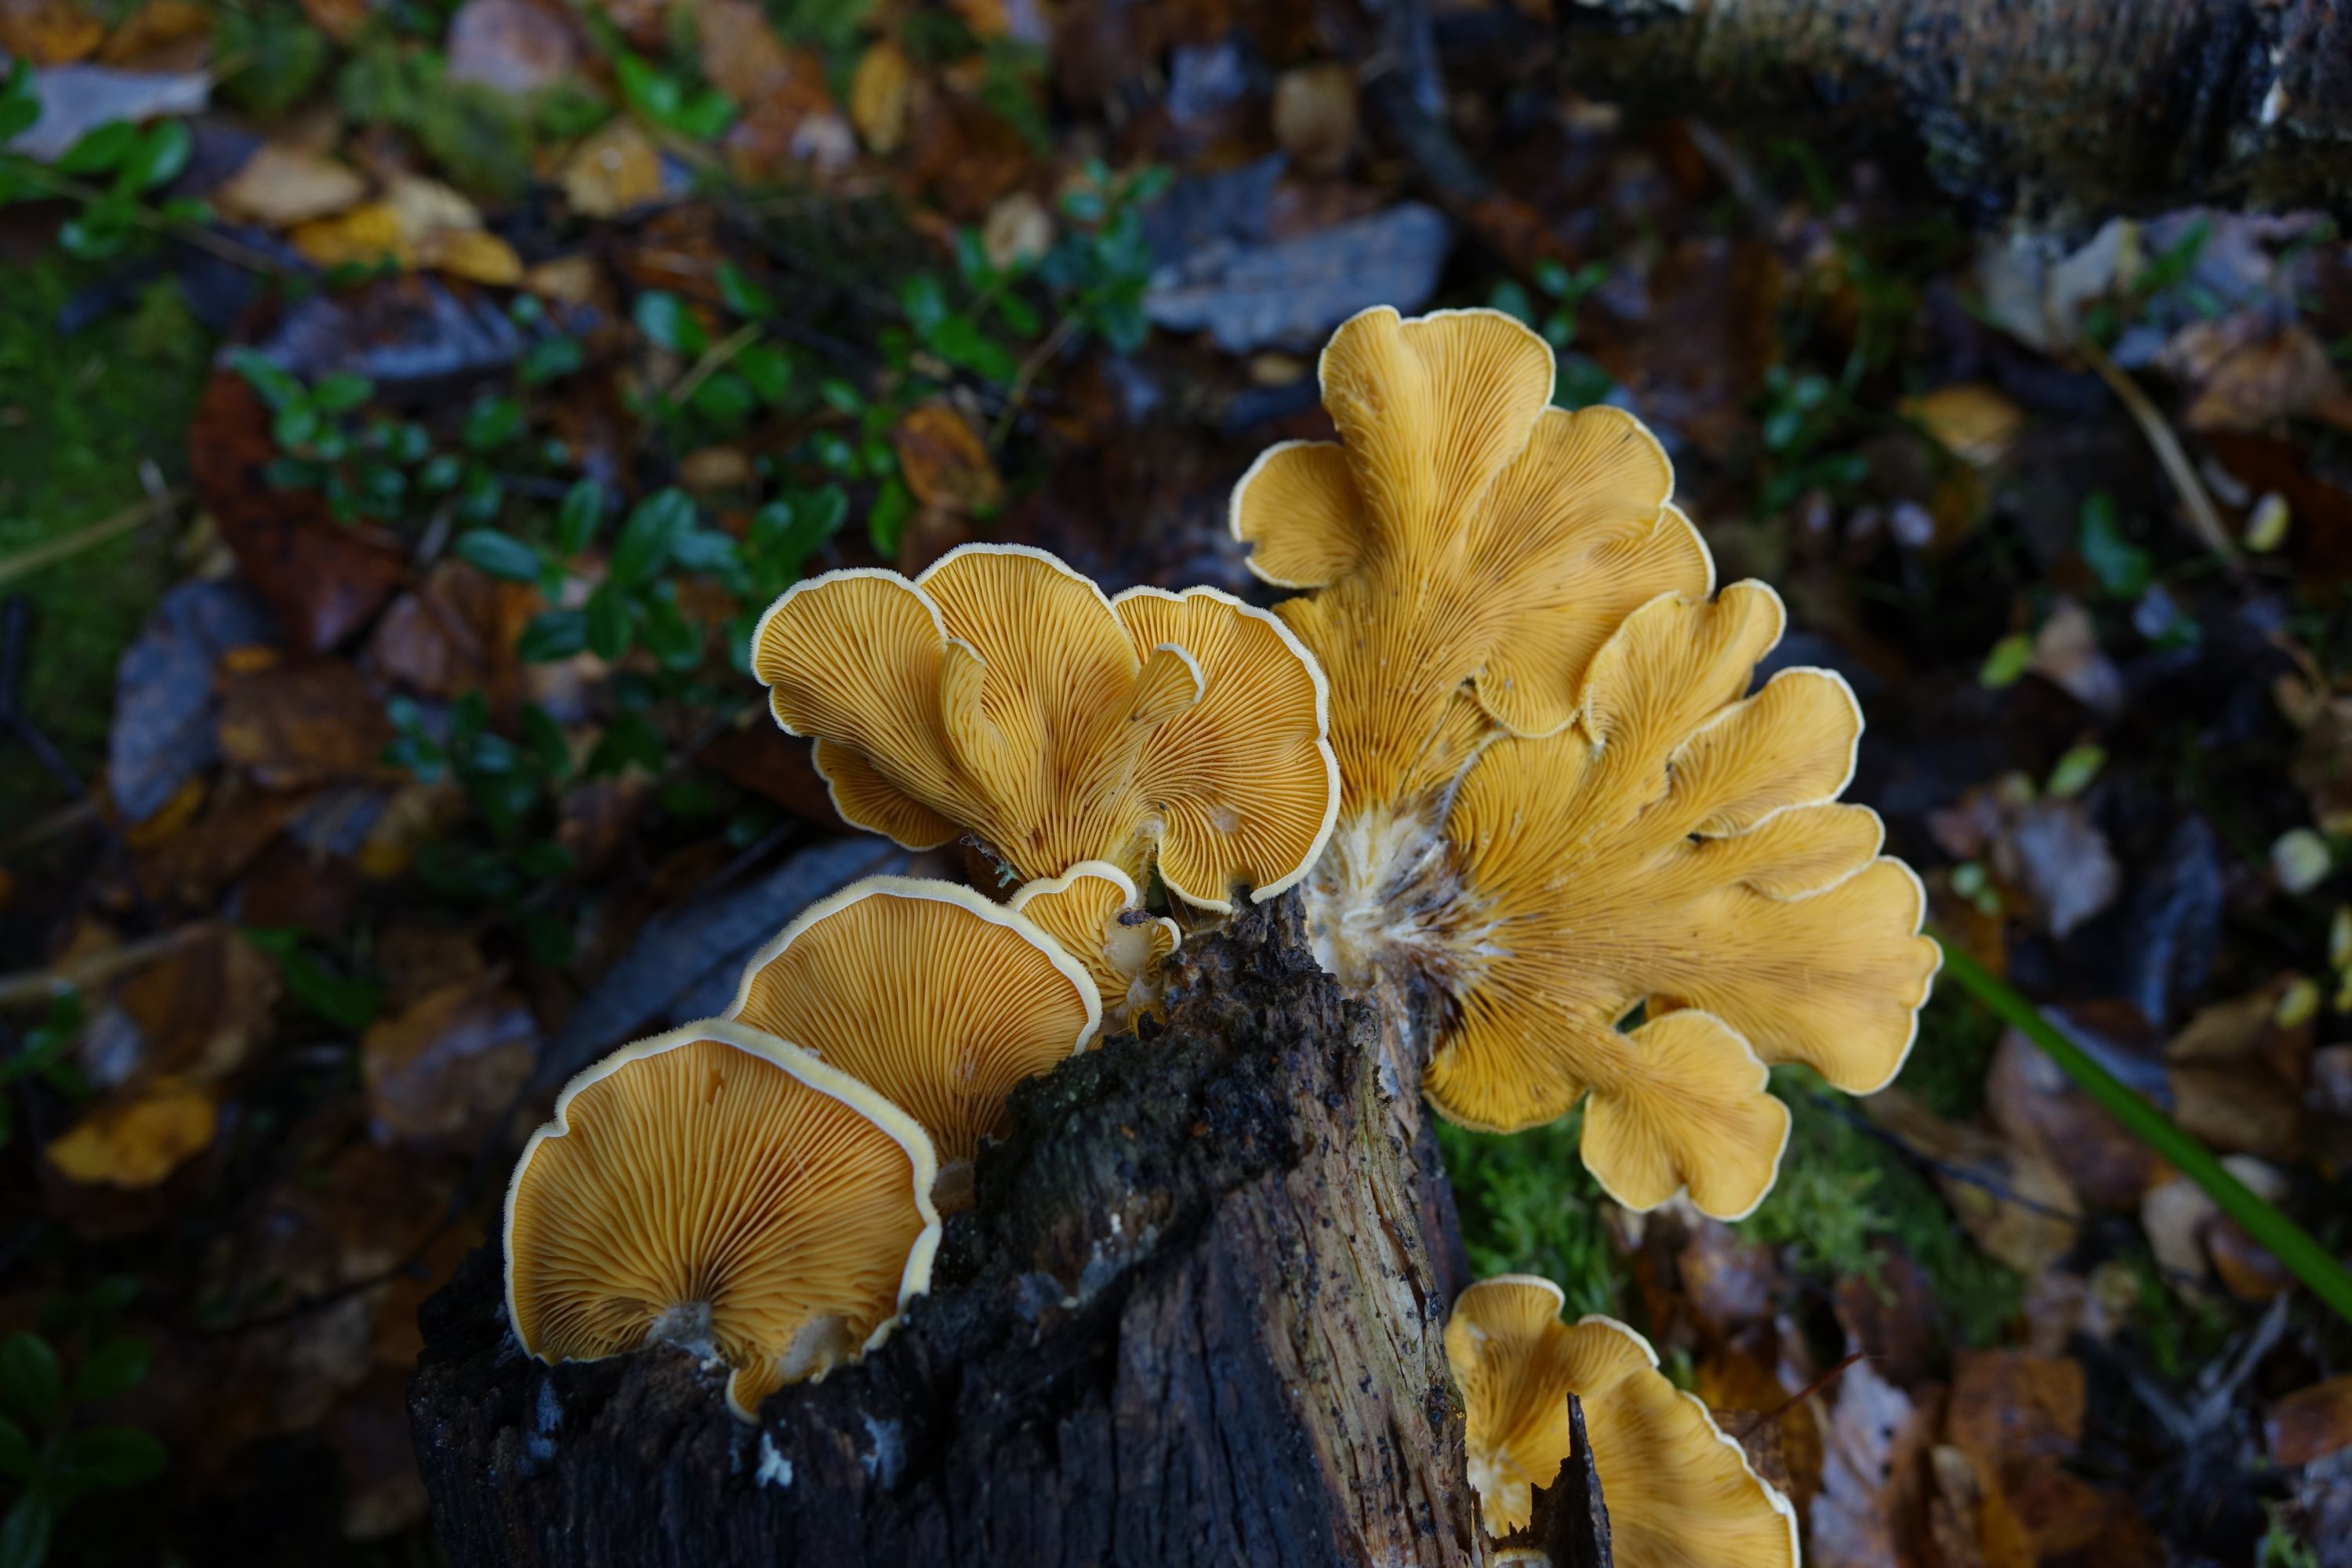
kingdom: Fungi
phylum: Basidiomycota
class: Agaricomycetes
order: Agaricales
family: Phyllotopsidaceae
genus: Phyllotopsis
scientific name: Phyllotopsis nidulans
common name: Orange mock oyster
